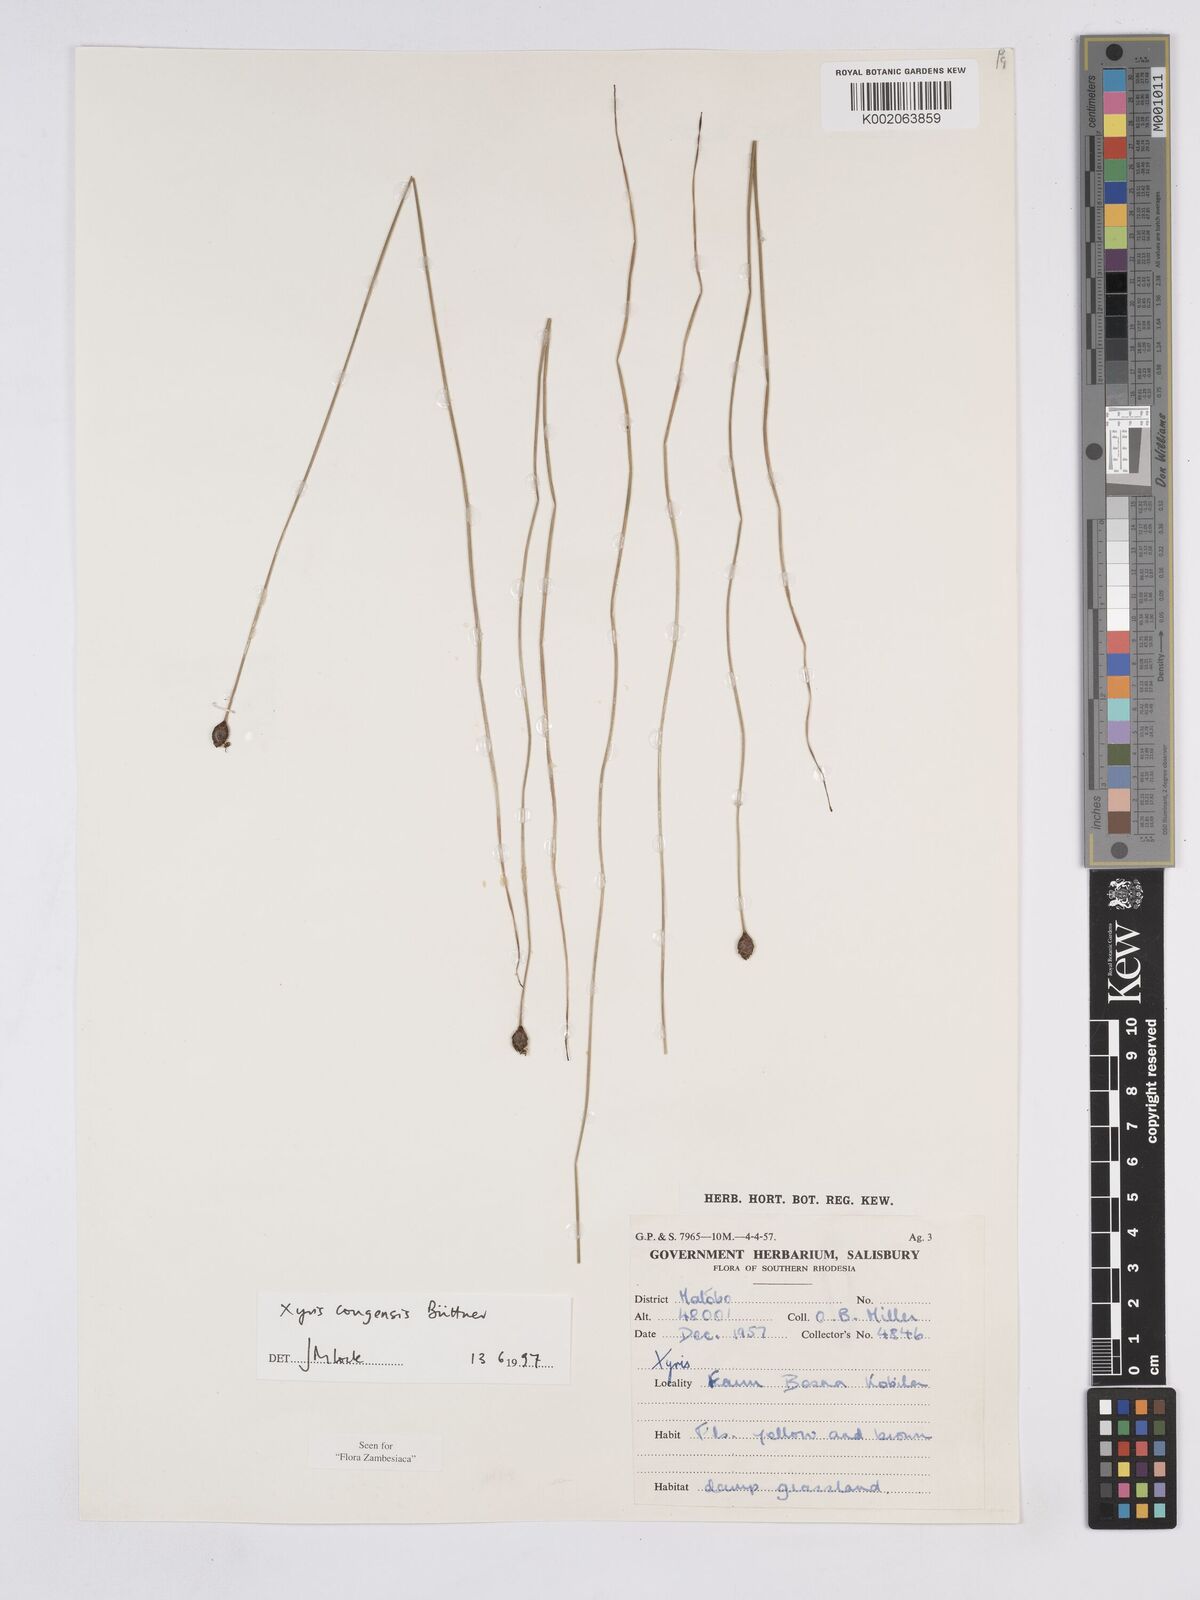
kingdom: Plantae
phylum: Tracheophyta
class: Liliopsida
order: Poales
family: Xyridaceae
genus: Xyris
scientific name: Xyris congensis
